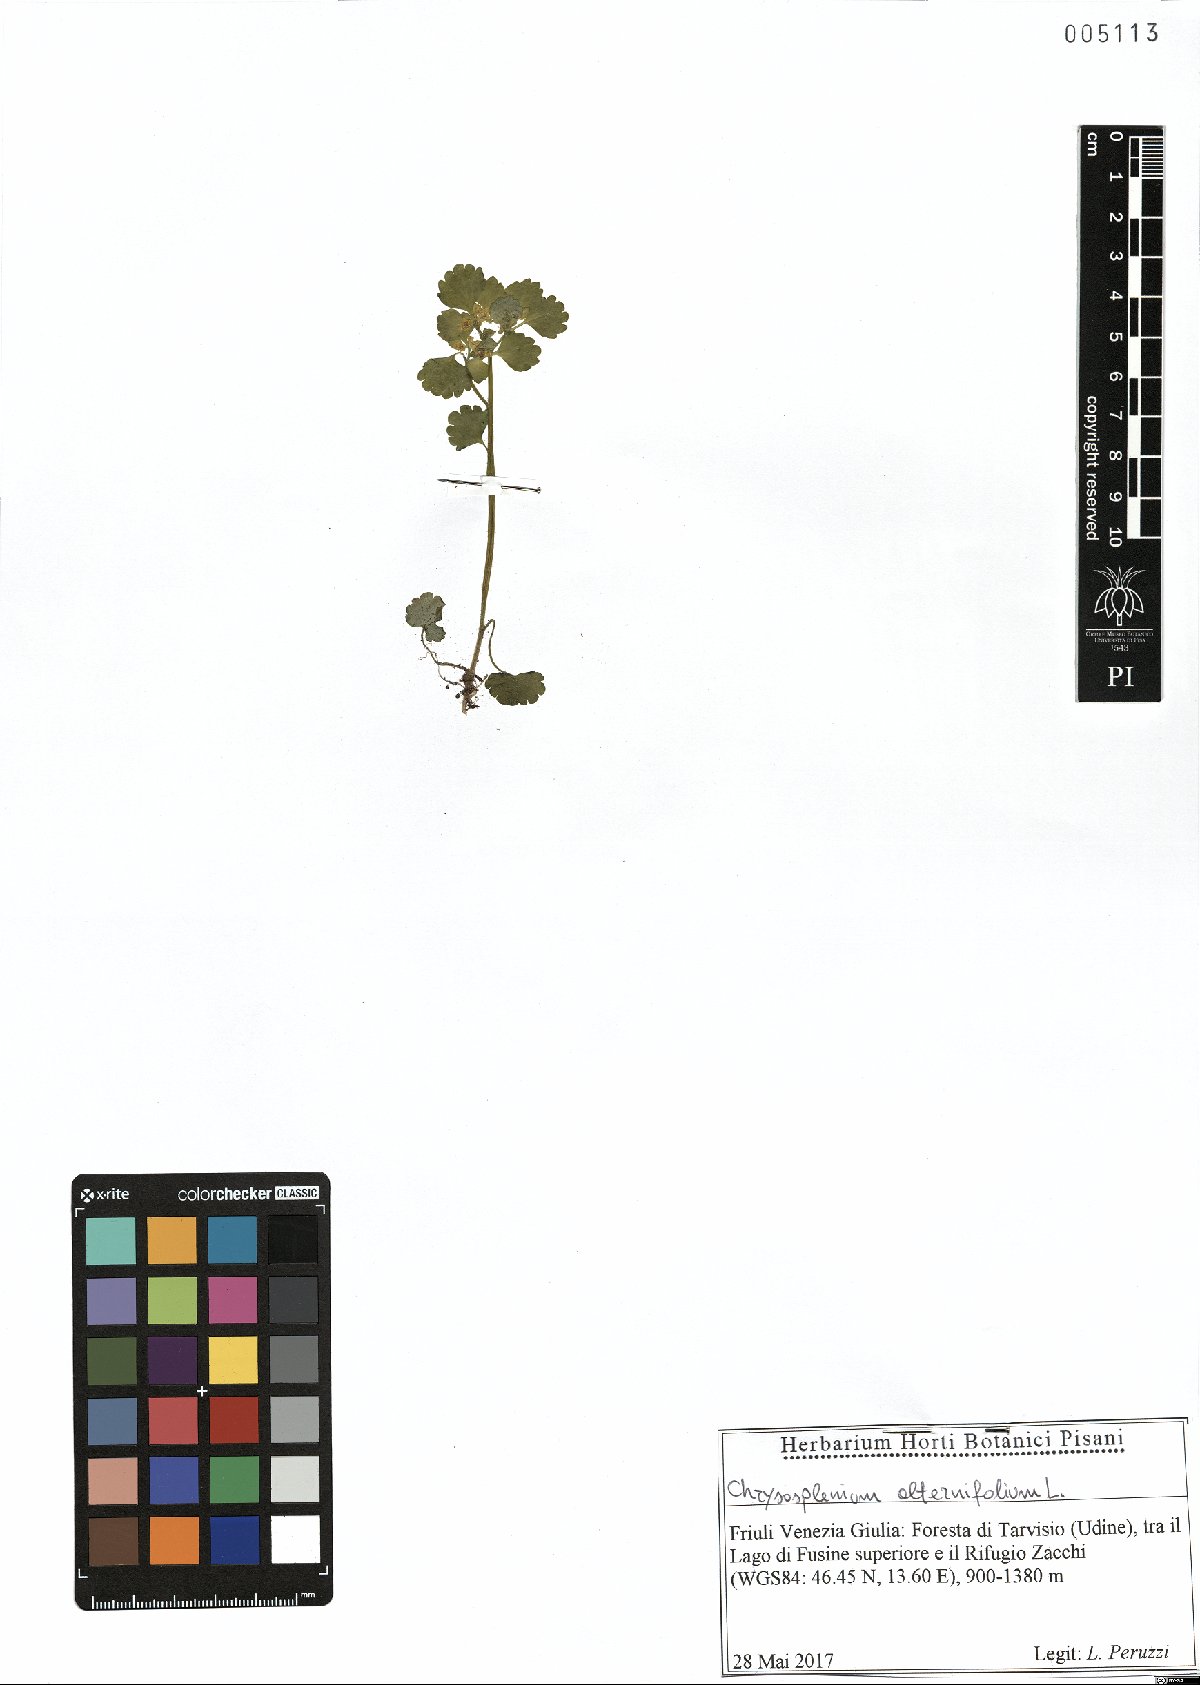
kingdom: Plantae
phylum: Tracheophyta
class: Magnoliopsida
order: Saxifragales
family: Saxifragaceae
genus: Chrysosplenium
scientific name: Chrysosplenium alternifolium
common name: Alternate-leaved golden-saxifrage
